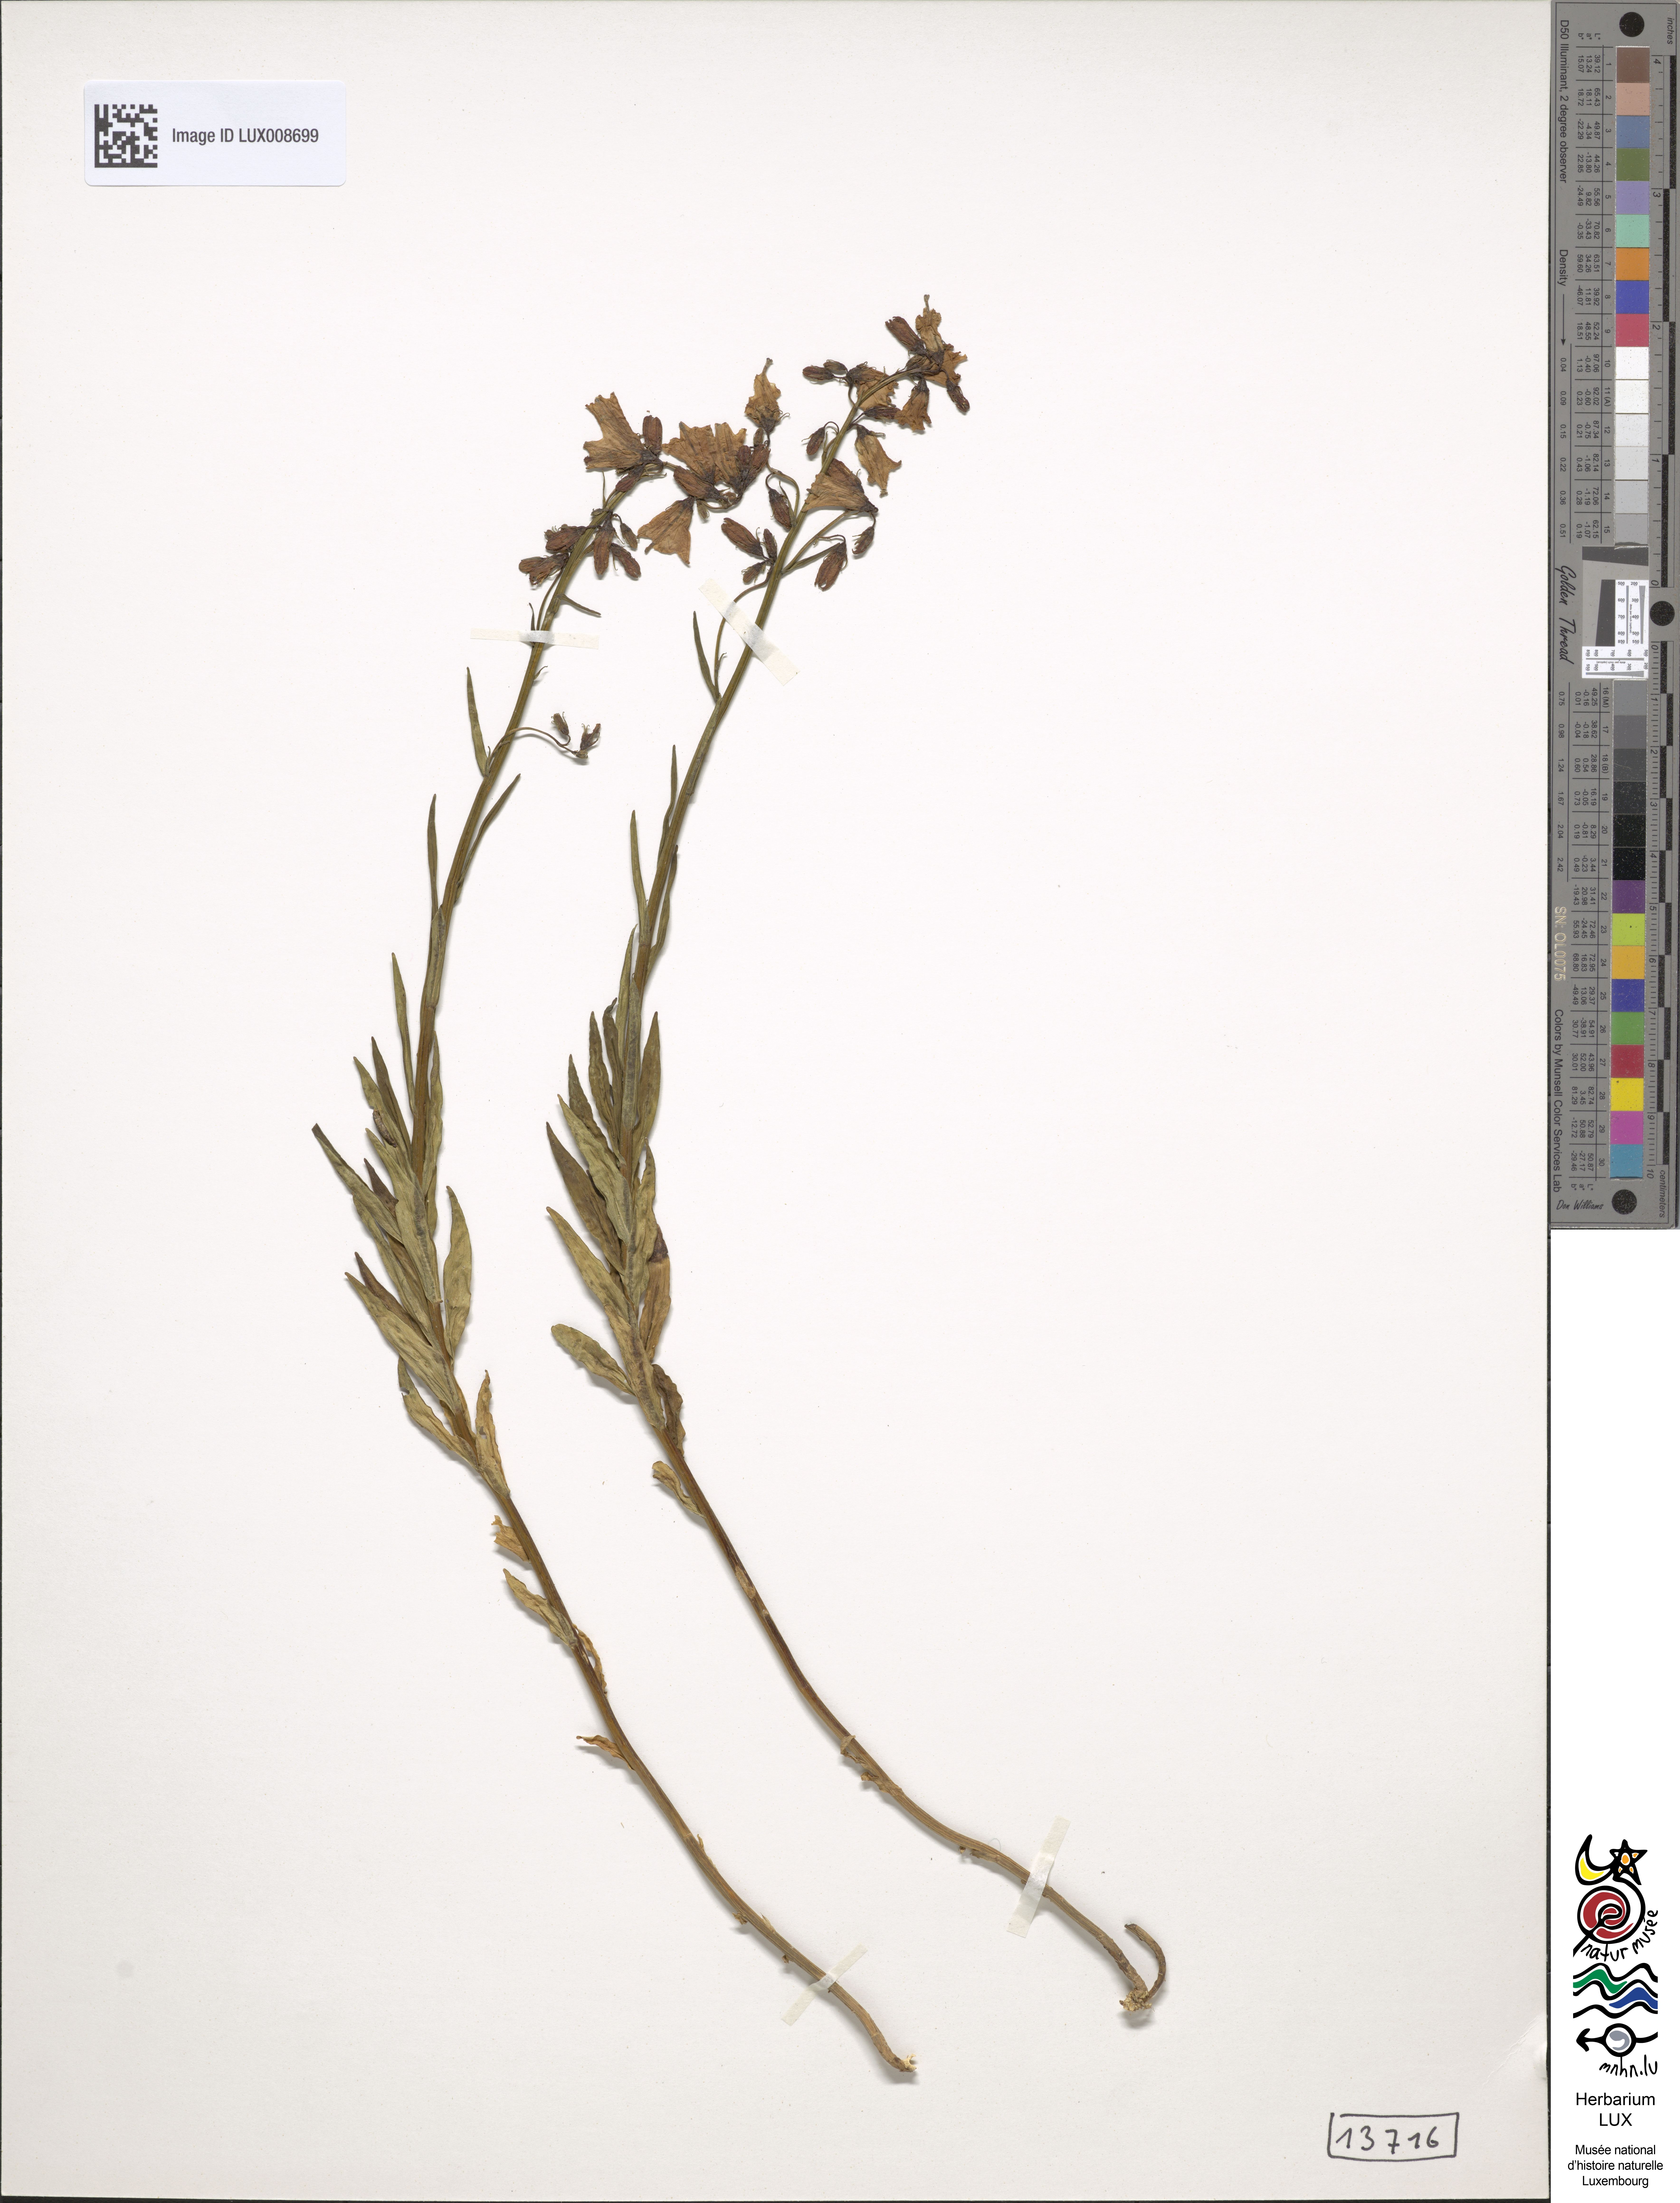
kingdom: Plantae
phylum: Tracheophyta
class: Magnoliopsida
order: Asterales
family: Campanulaceae
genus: Campanula
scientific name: Campanula
